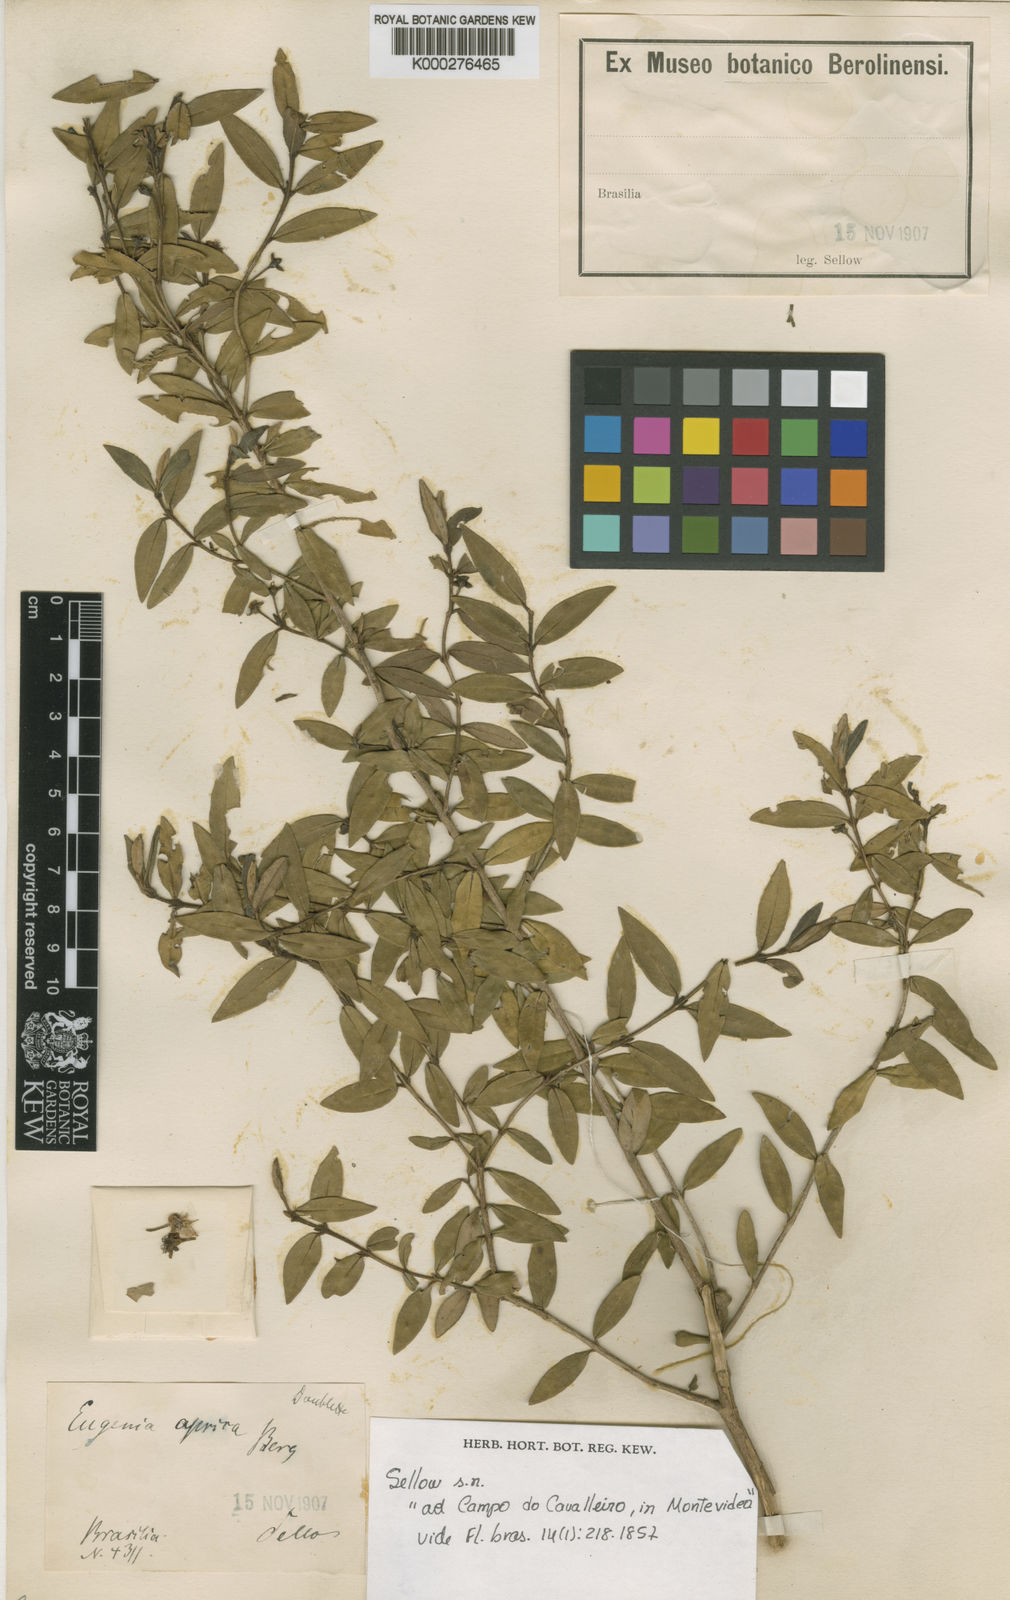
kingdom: Plantae
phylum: Tracheophyta
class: Magnoliopsida
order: Myrtales
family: Myrtaceae
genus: Myrceugenia
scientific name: Myrceugenia euosma
